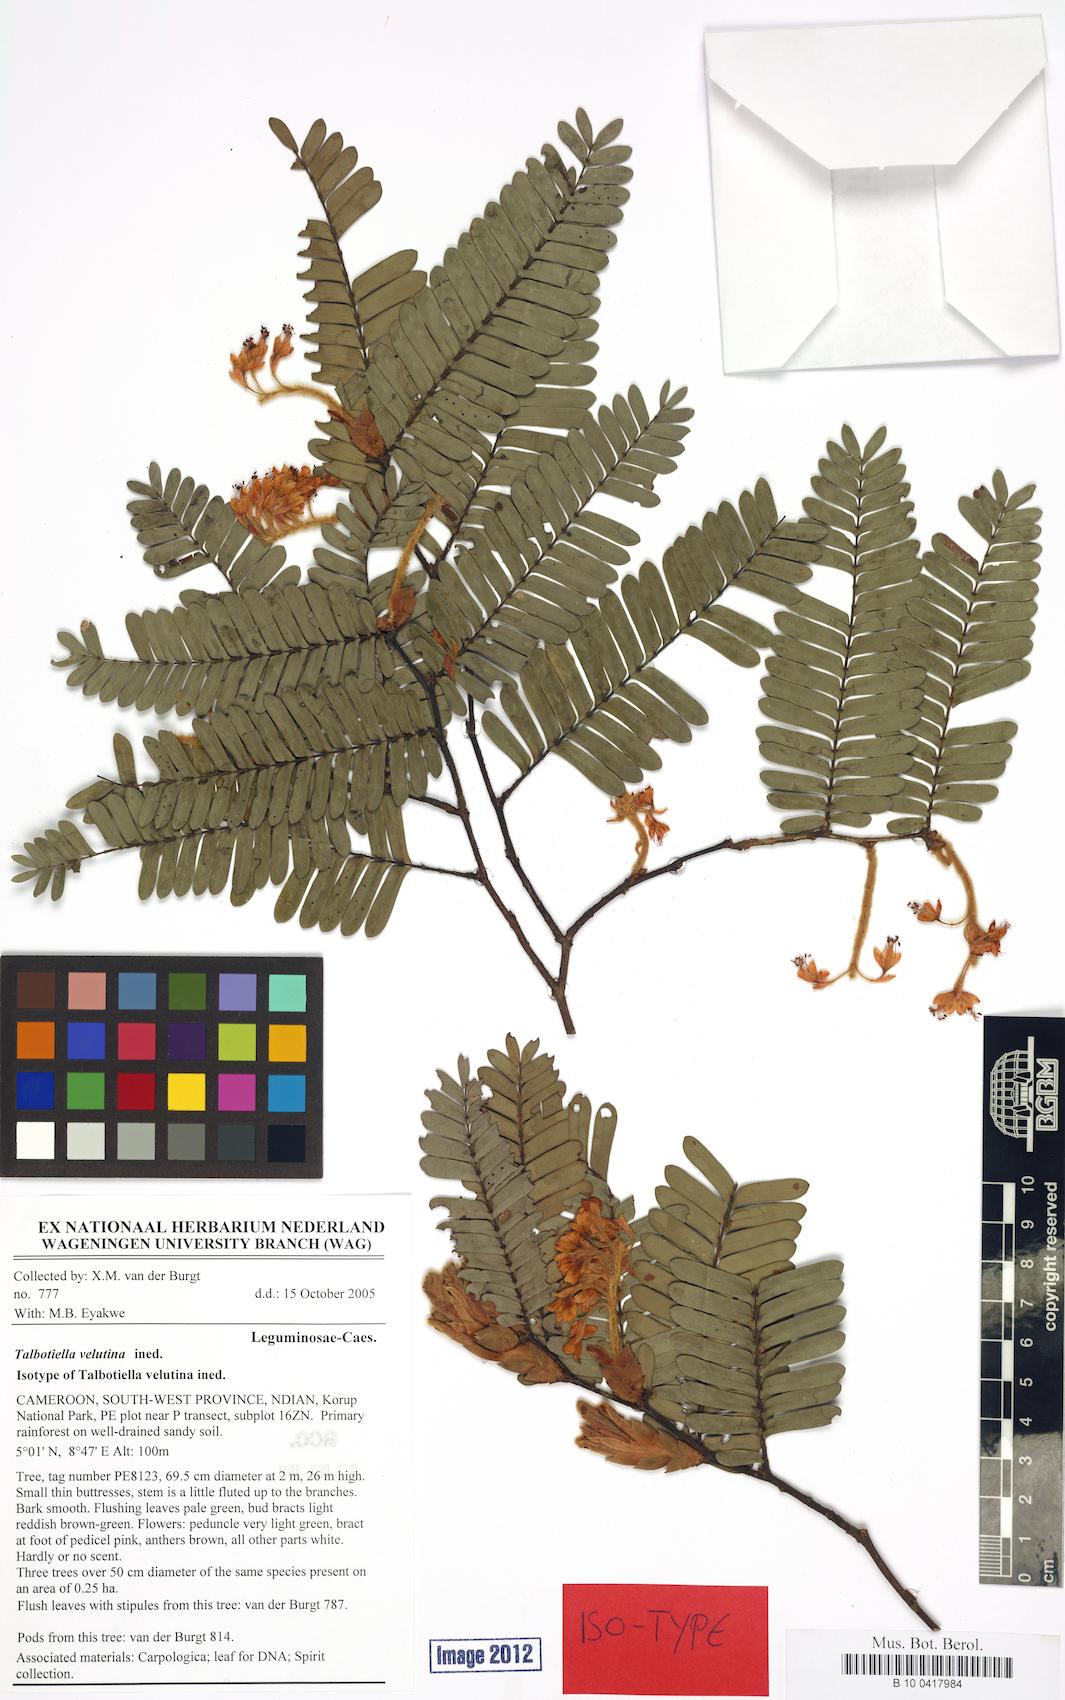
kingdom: Plantae
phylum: Tracheophyta
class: Magnoliopsida
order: Fabales
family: Fabaceae
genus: Talbotiella
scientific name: Talbotiella velutina
